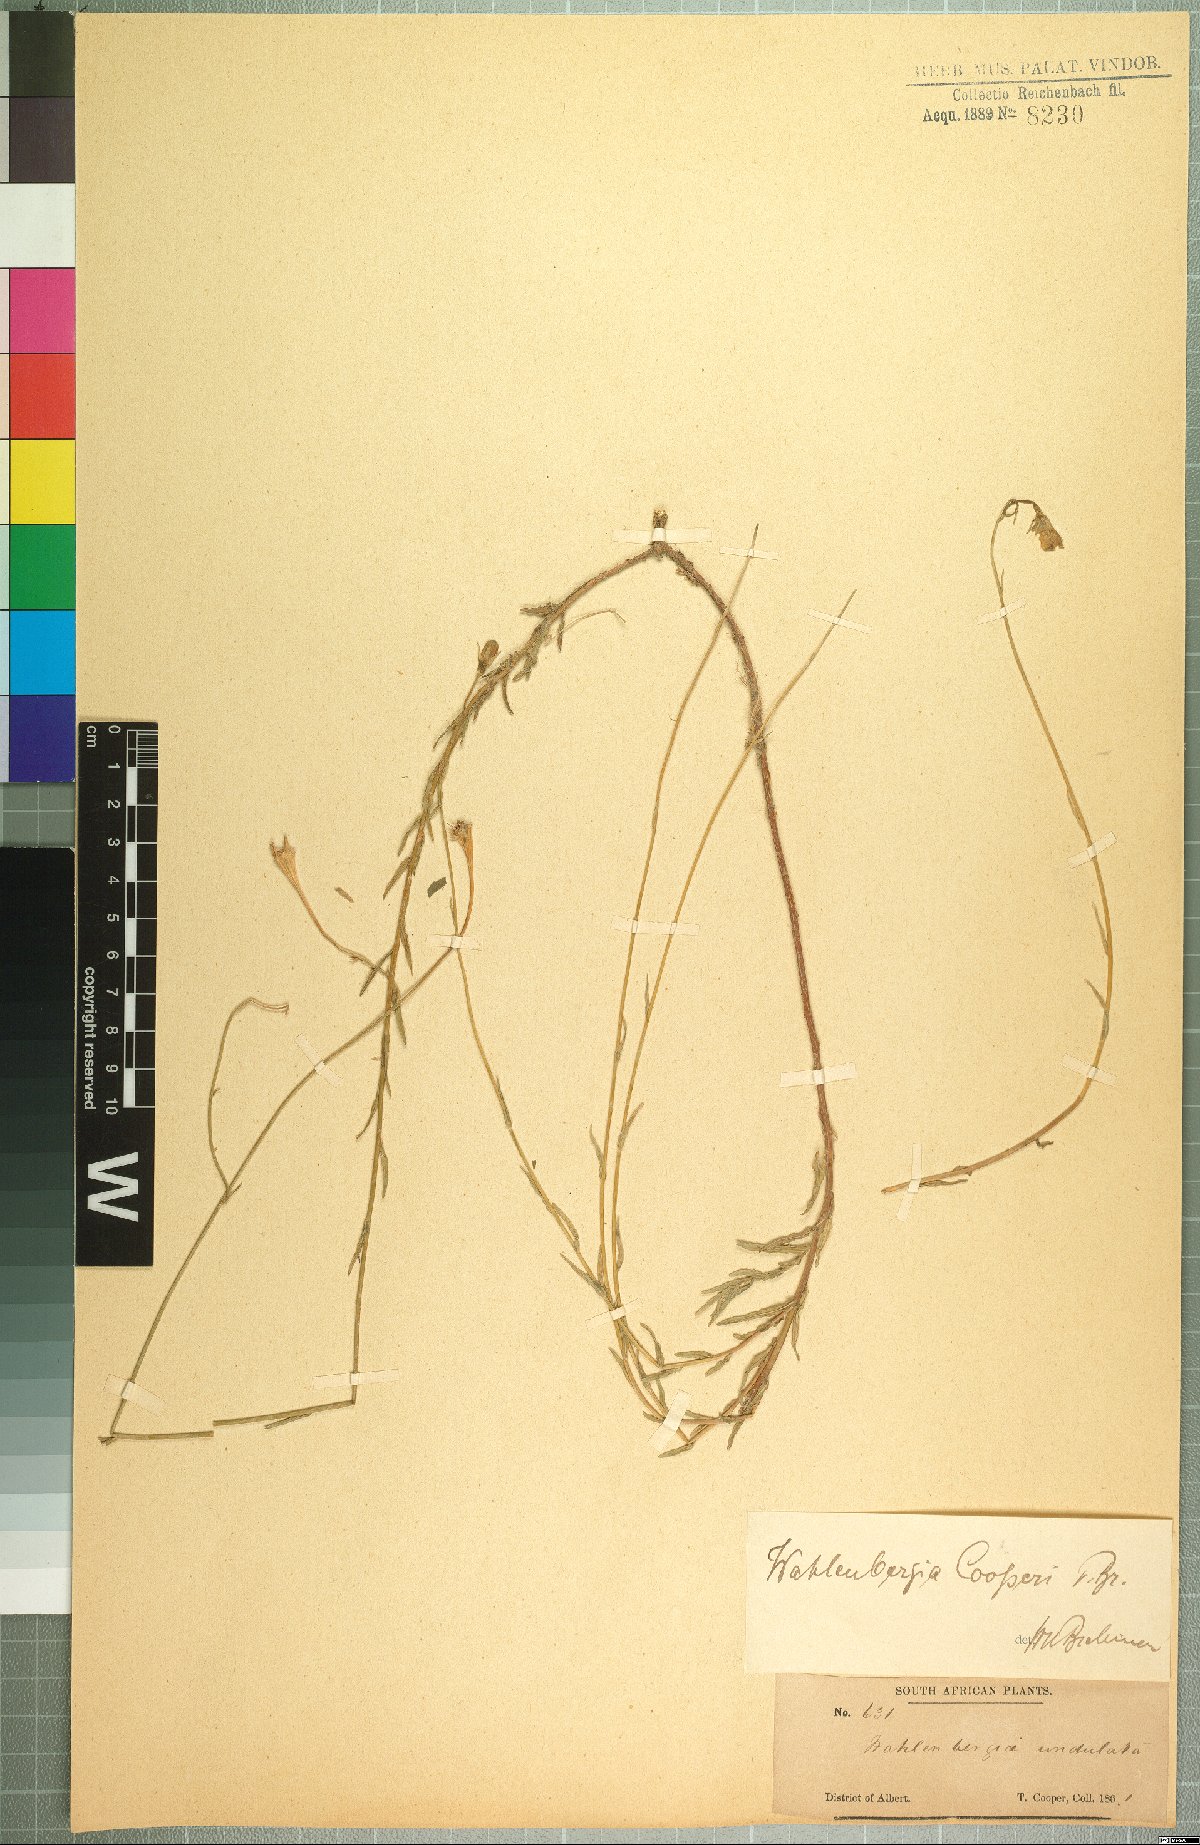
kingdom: Plantae
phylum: Tracheophyta
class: Magnoliopsida
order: Asterales
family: Campanulaceae
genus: Wahlenbergia
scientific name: Wahlenbergia cooperi
